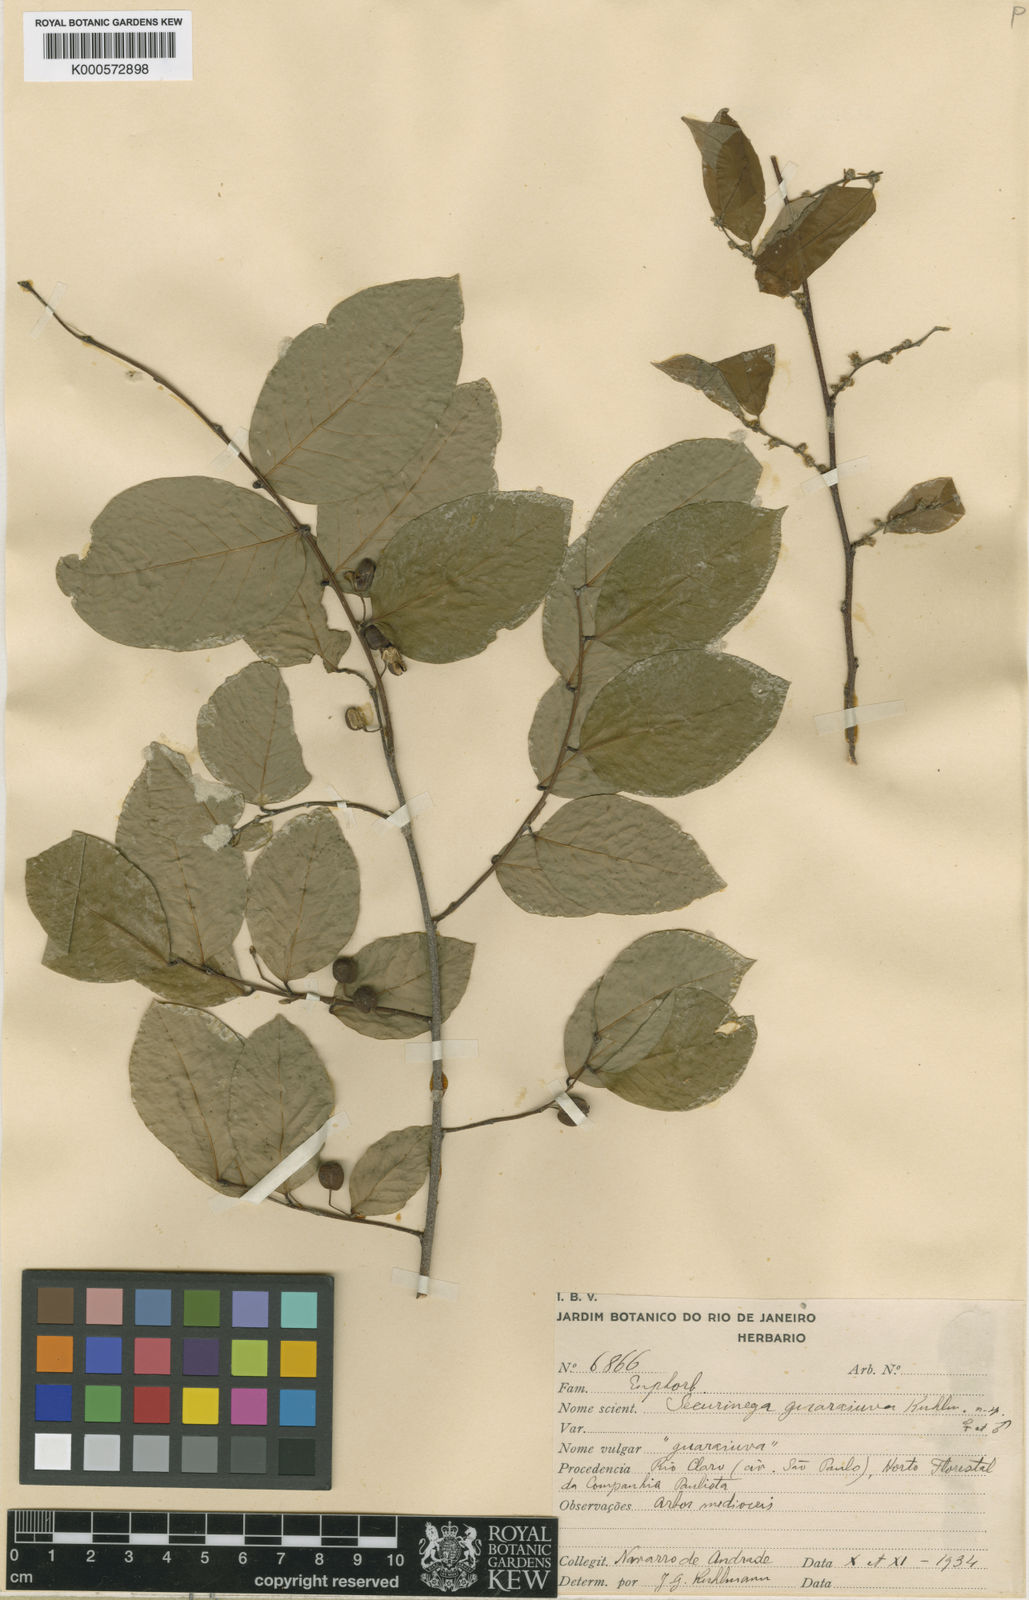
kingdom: Plantae
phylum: Tracheophyta
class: Magnoliopsida
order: Malpighiales
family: Phyllanthaceae
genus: Savia
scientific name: Savia
